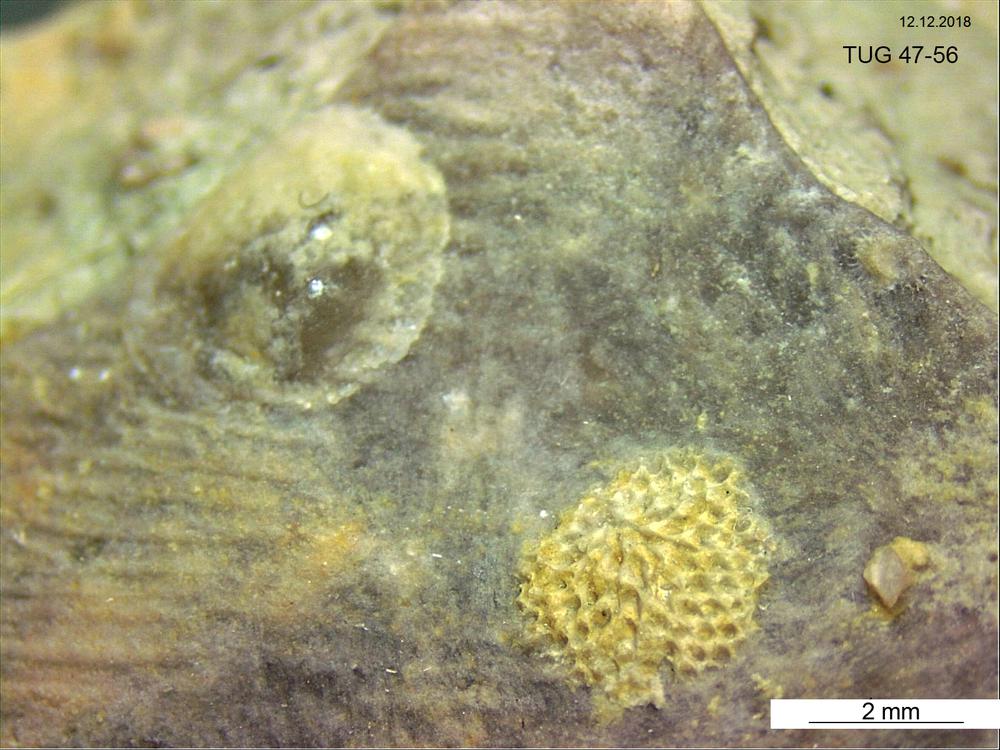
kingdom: Animalia
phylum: Bryozoa
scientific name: Bryozoa
